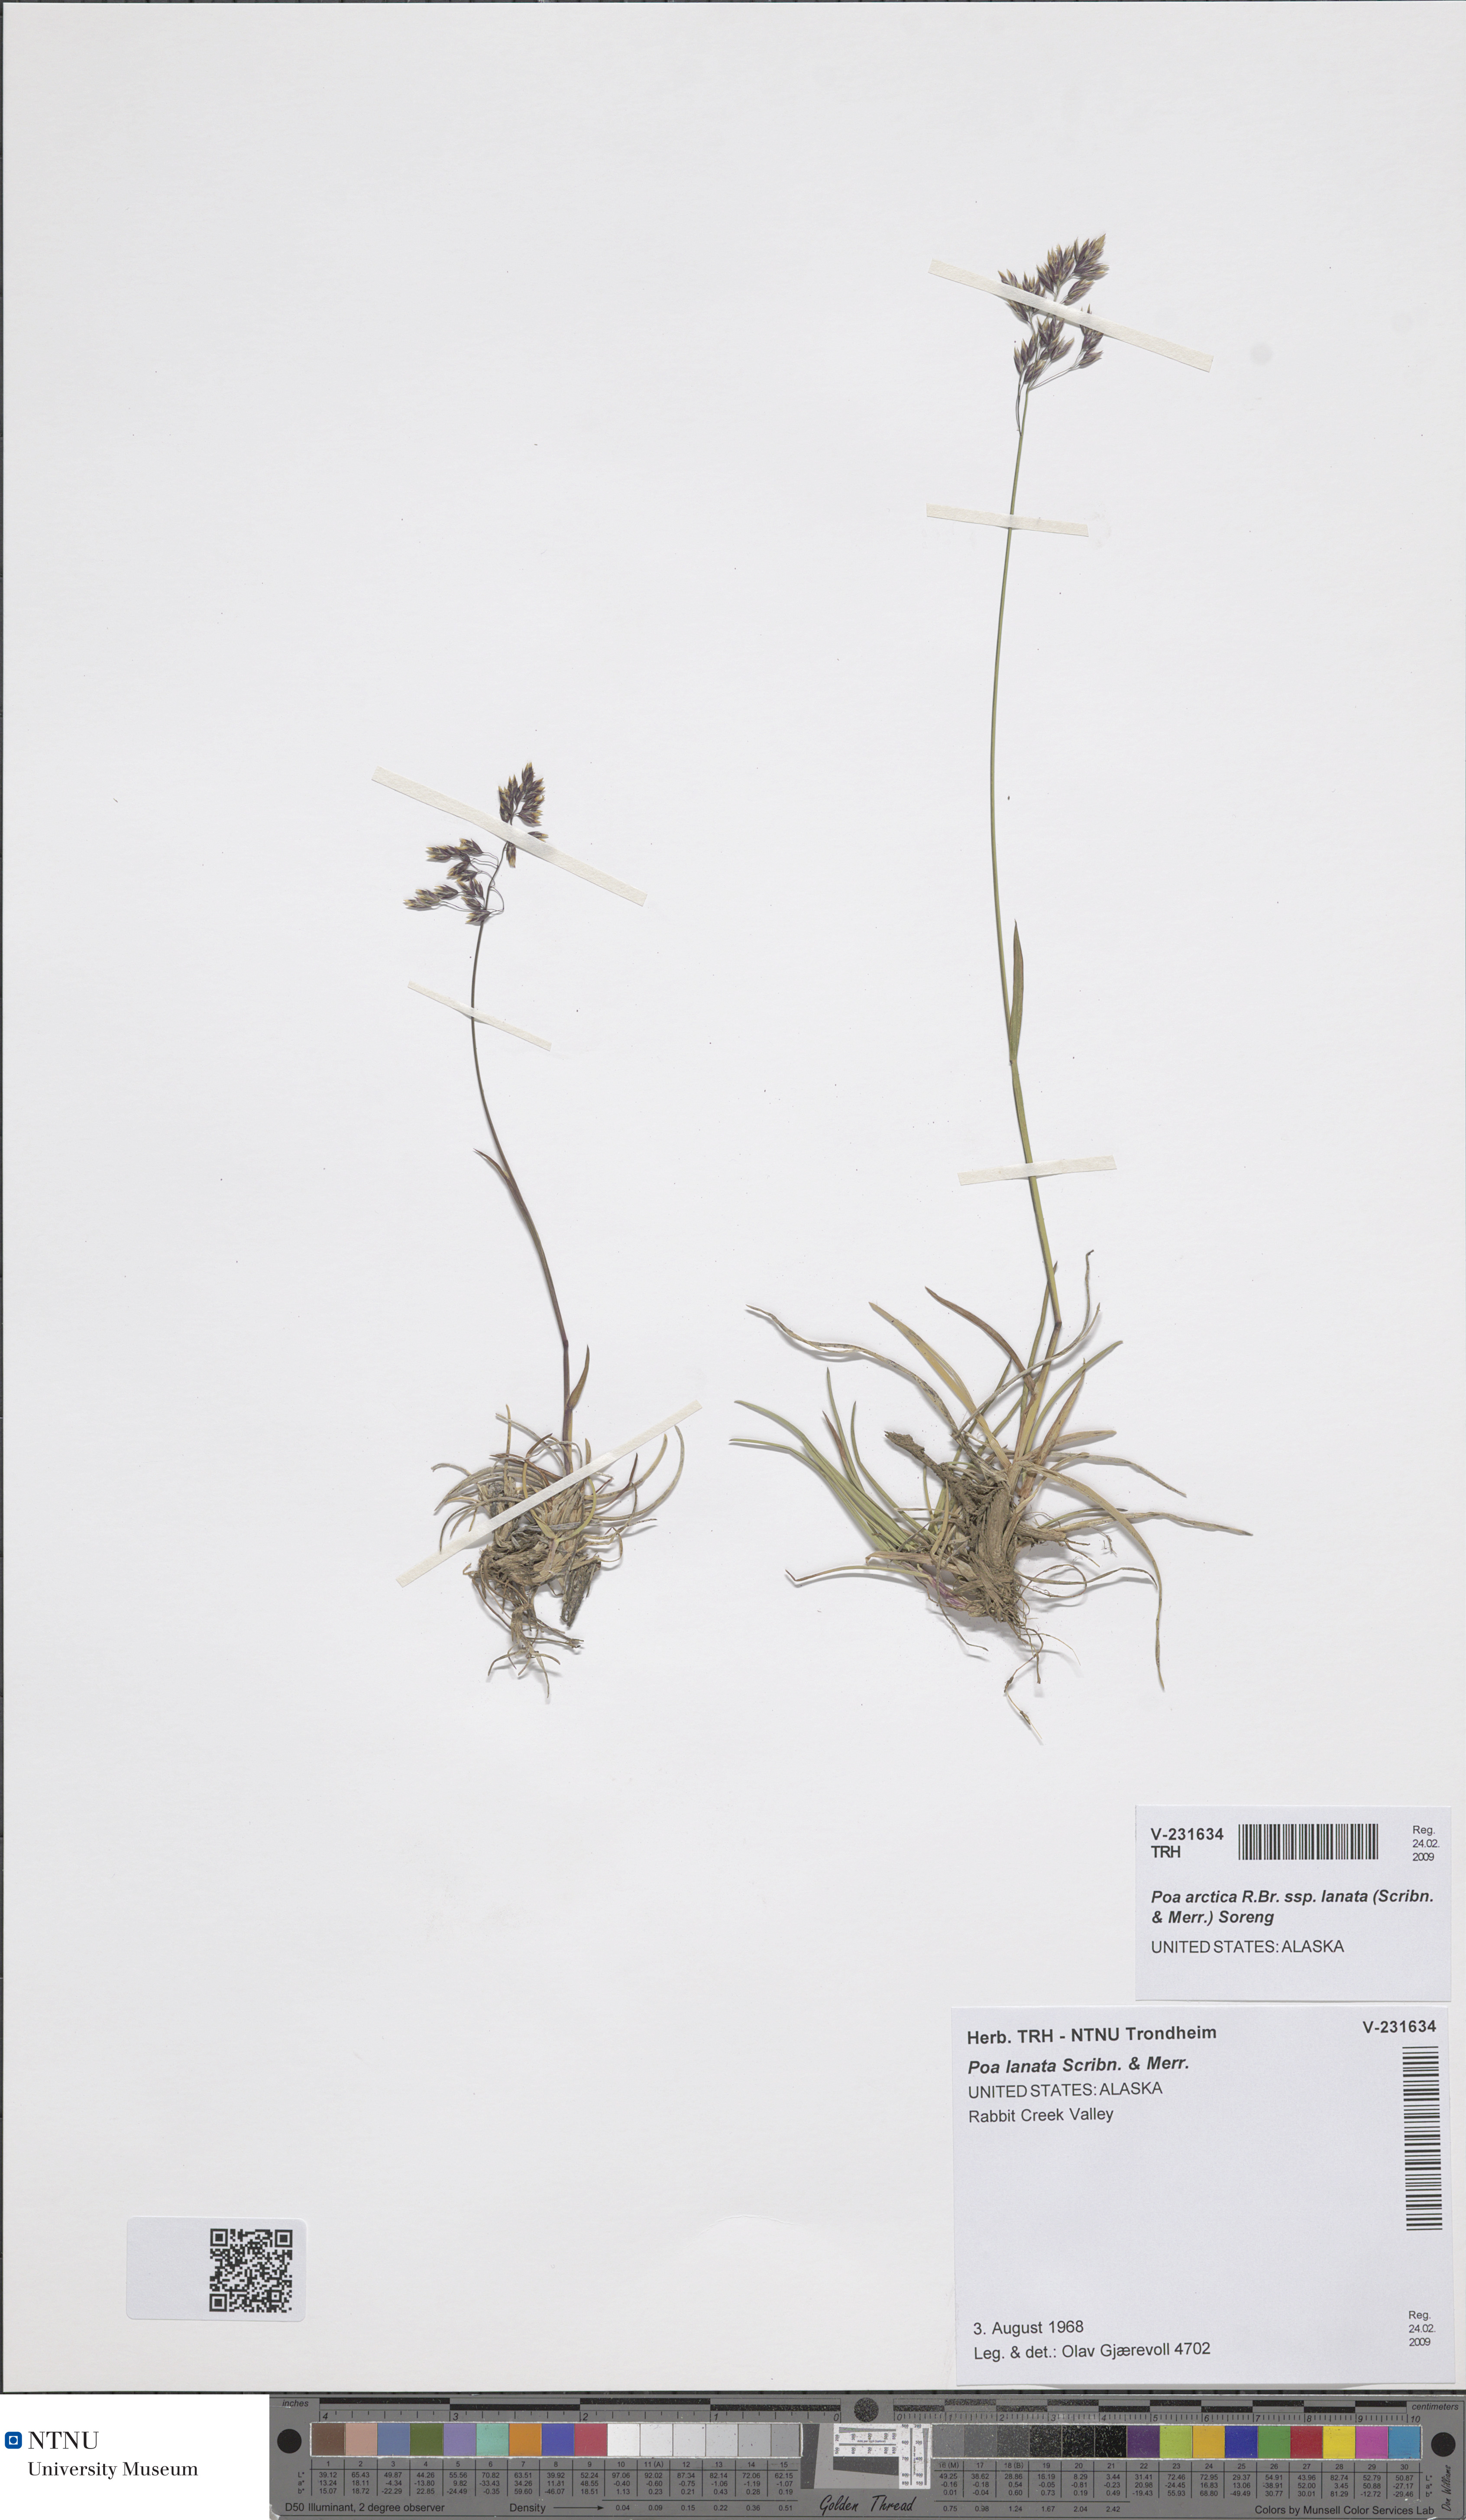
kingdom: Plantae
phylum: Tracheophyta
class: Liliopsida
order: Poales
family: Poaceae
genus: Poa
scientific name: Poa lanata
